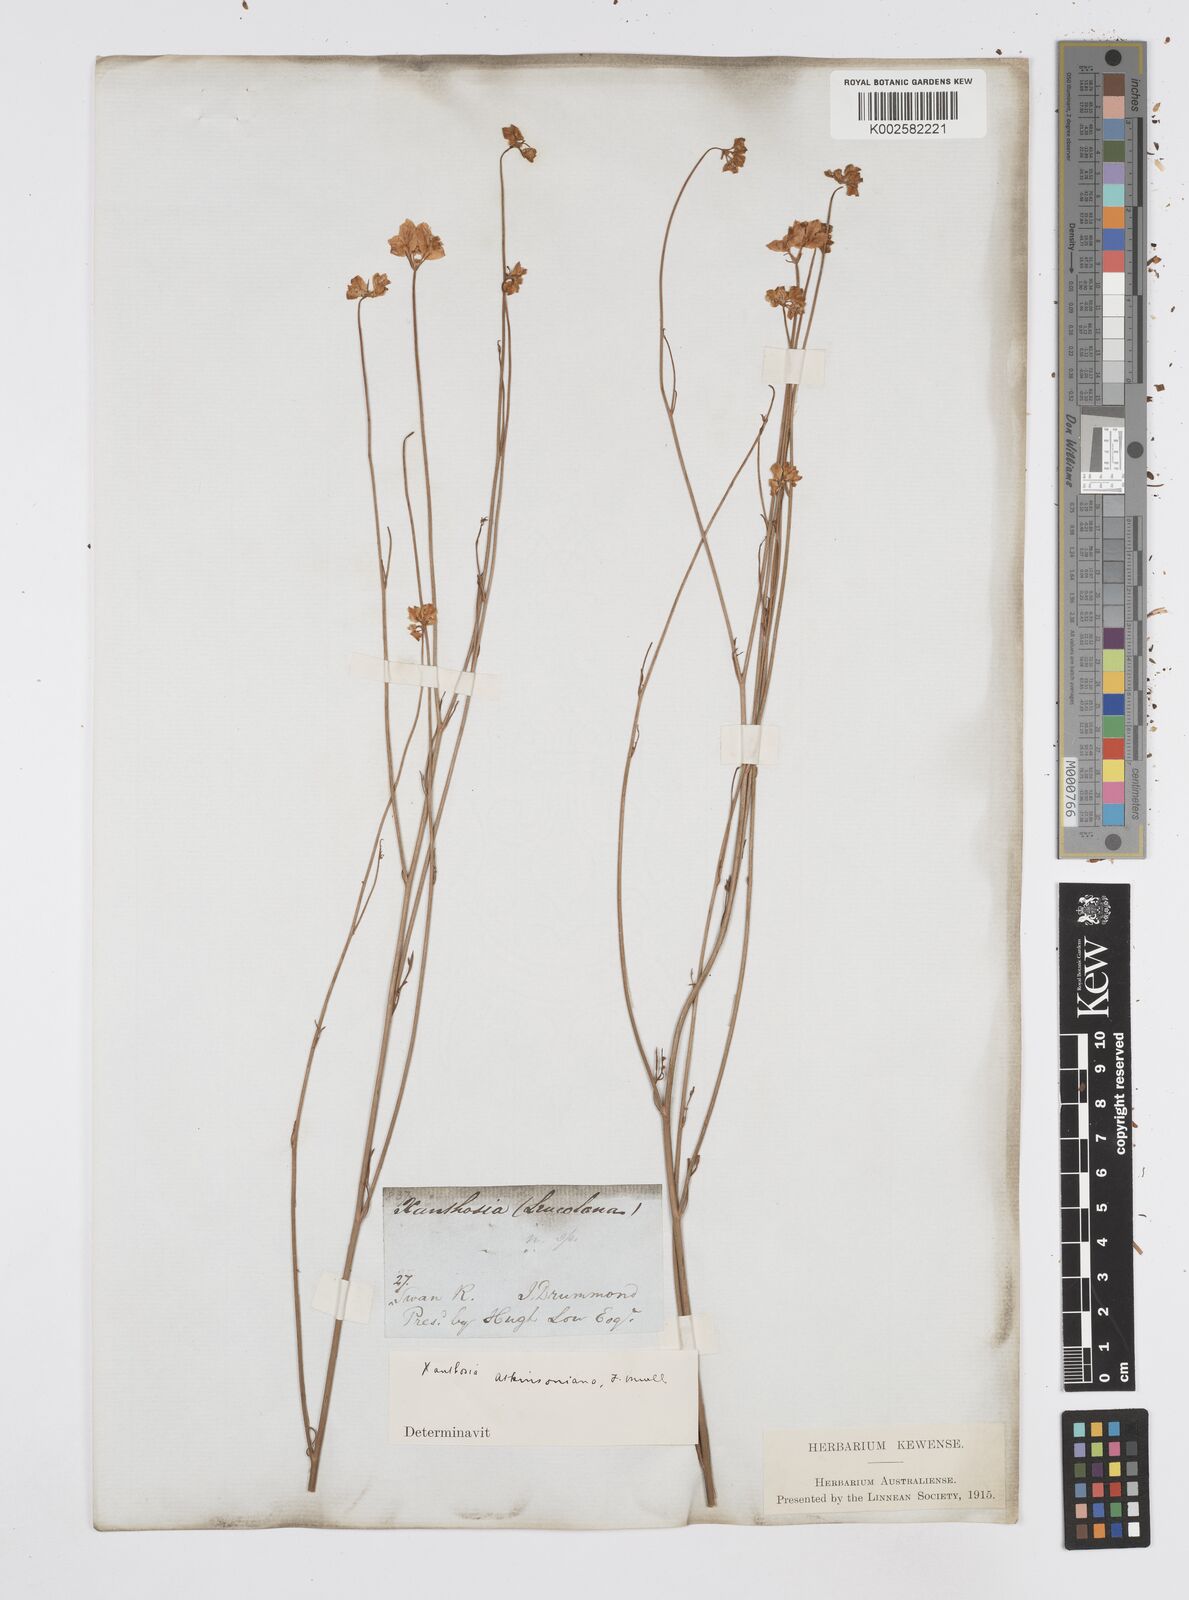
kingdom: Plantae
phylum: Tracheophyta
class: Magnoliopsida
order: Apiales
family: Apiaceae
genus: Xanthosia
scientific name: Xanthosia atkinsoniana
